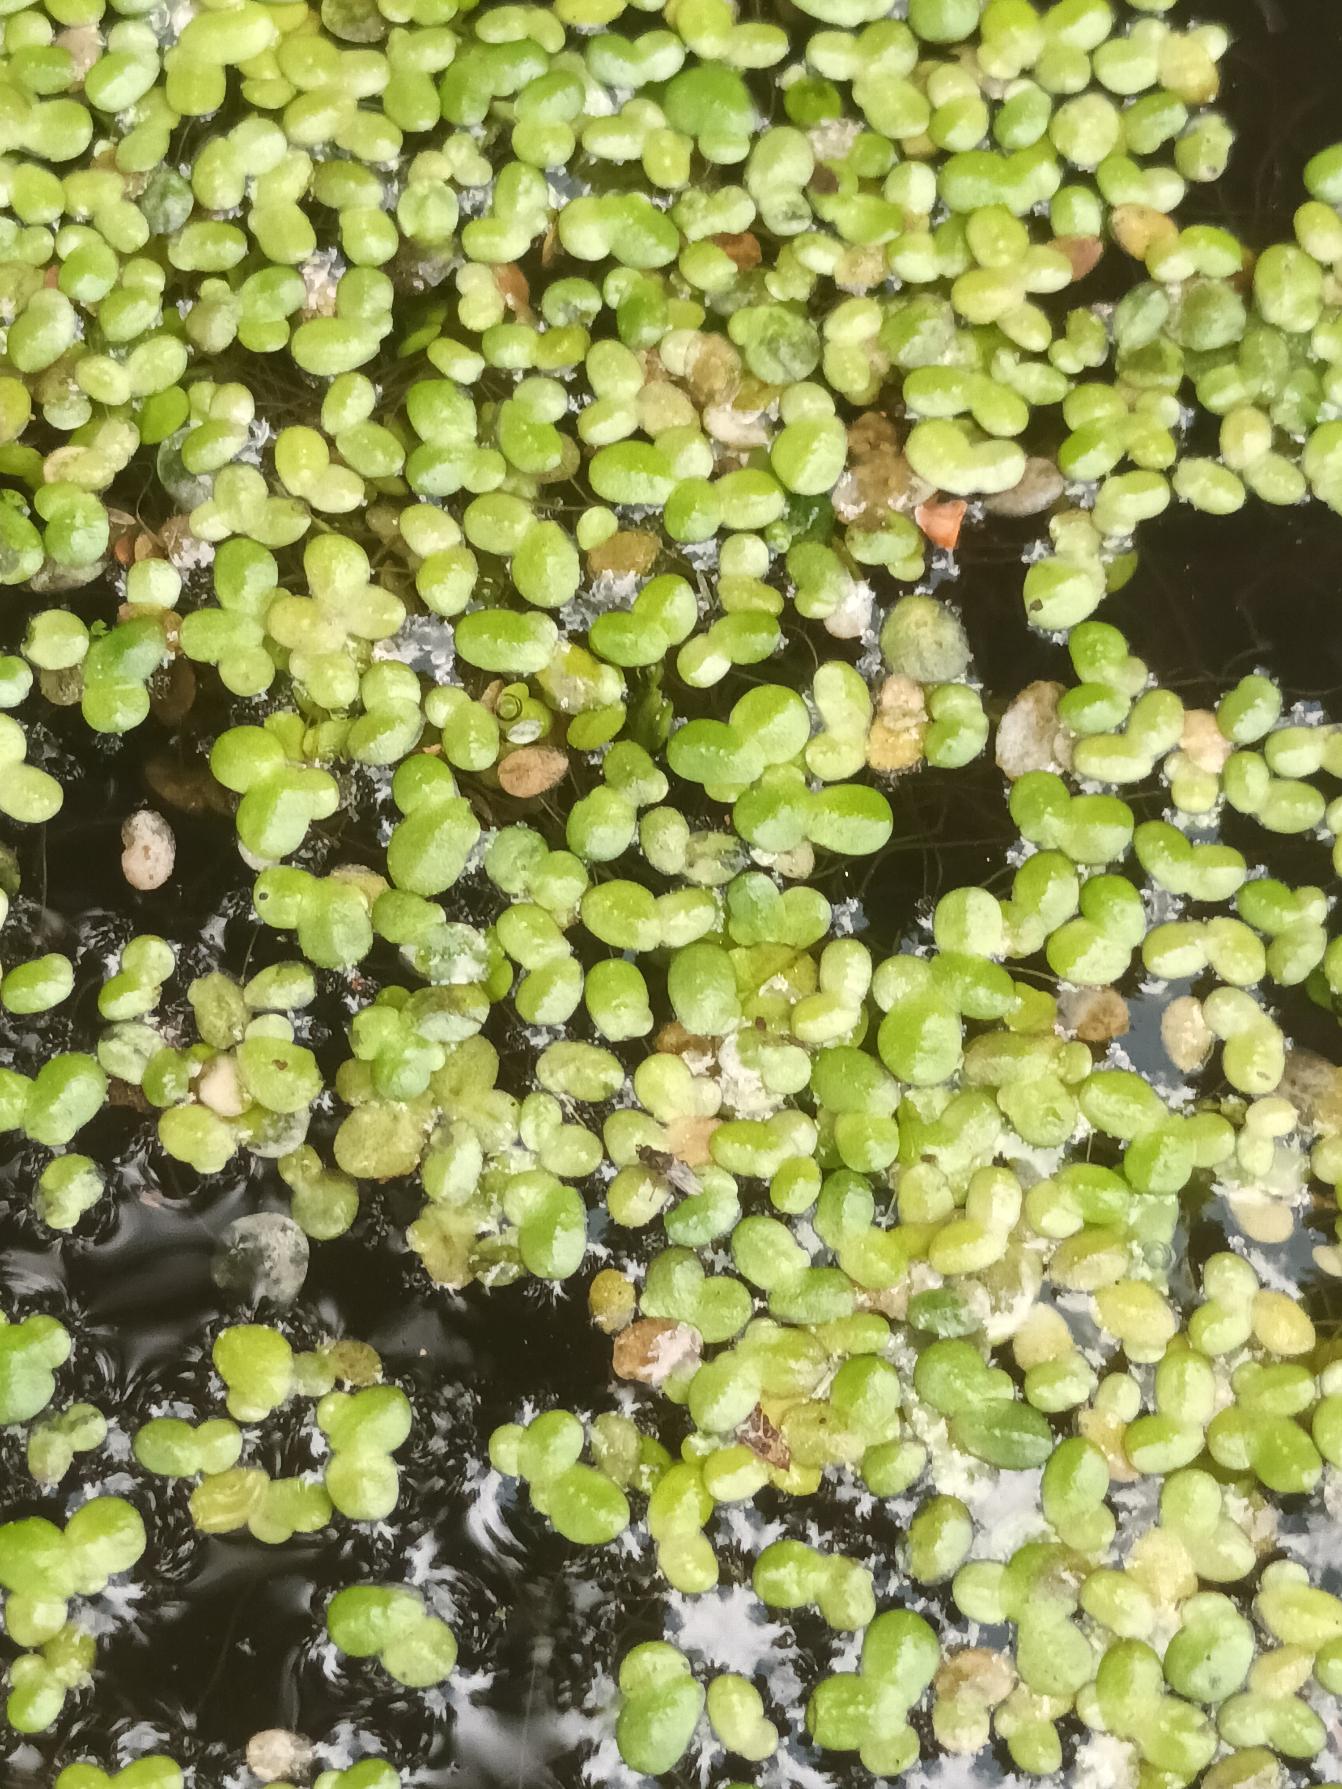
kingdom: Plantae
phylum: Tracheophyta
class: Liliopsida
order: Alismatales
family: Araceae
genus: Lemna
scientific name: Lemna minor
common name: Liden andemad
